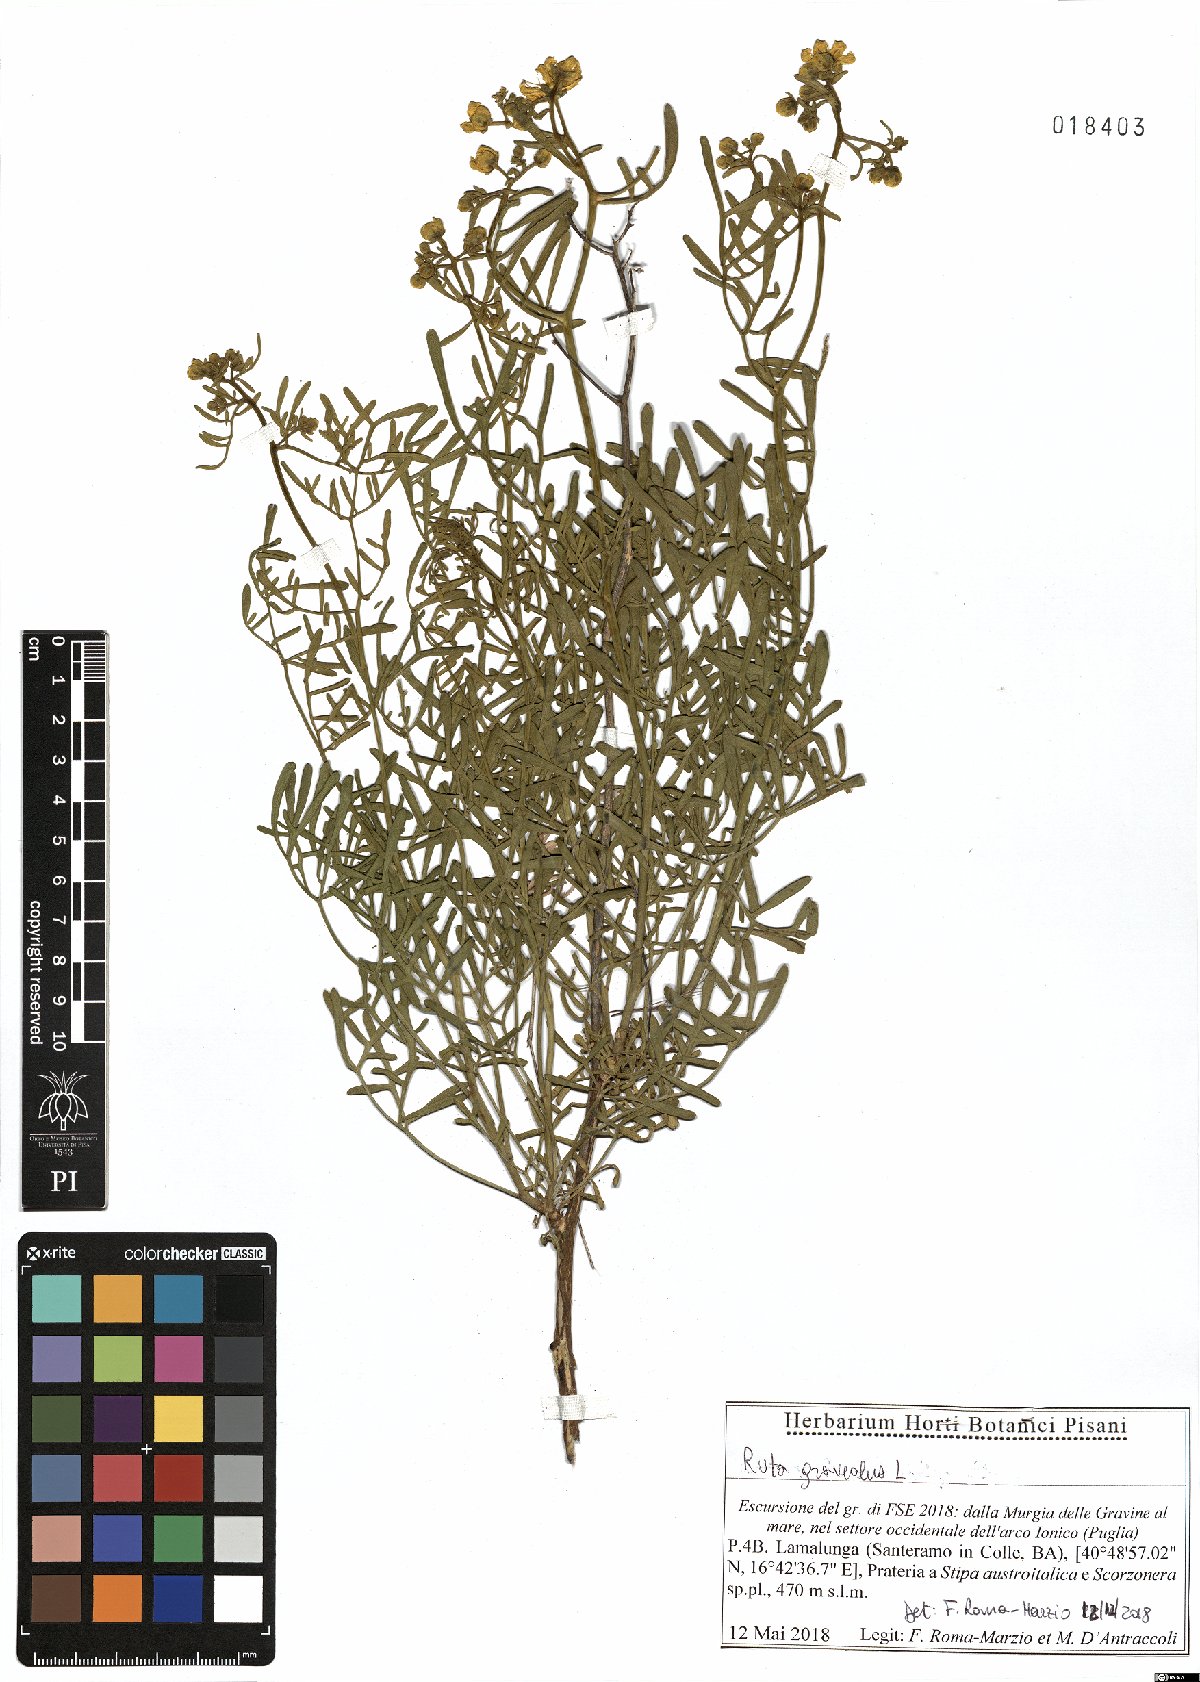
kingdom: Plantae
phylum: Tracheophyta
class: Magnoliopsida
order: Sapindales
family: Rutaceae
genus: Ruta
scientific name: Ruta graveolens
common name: Common rue
